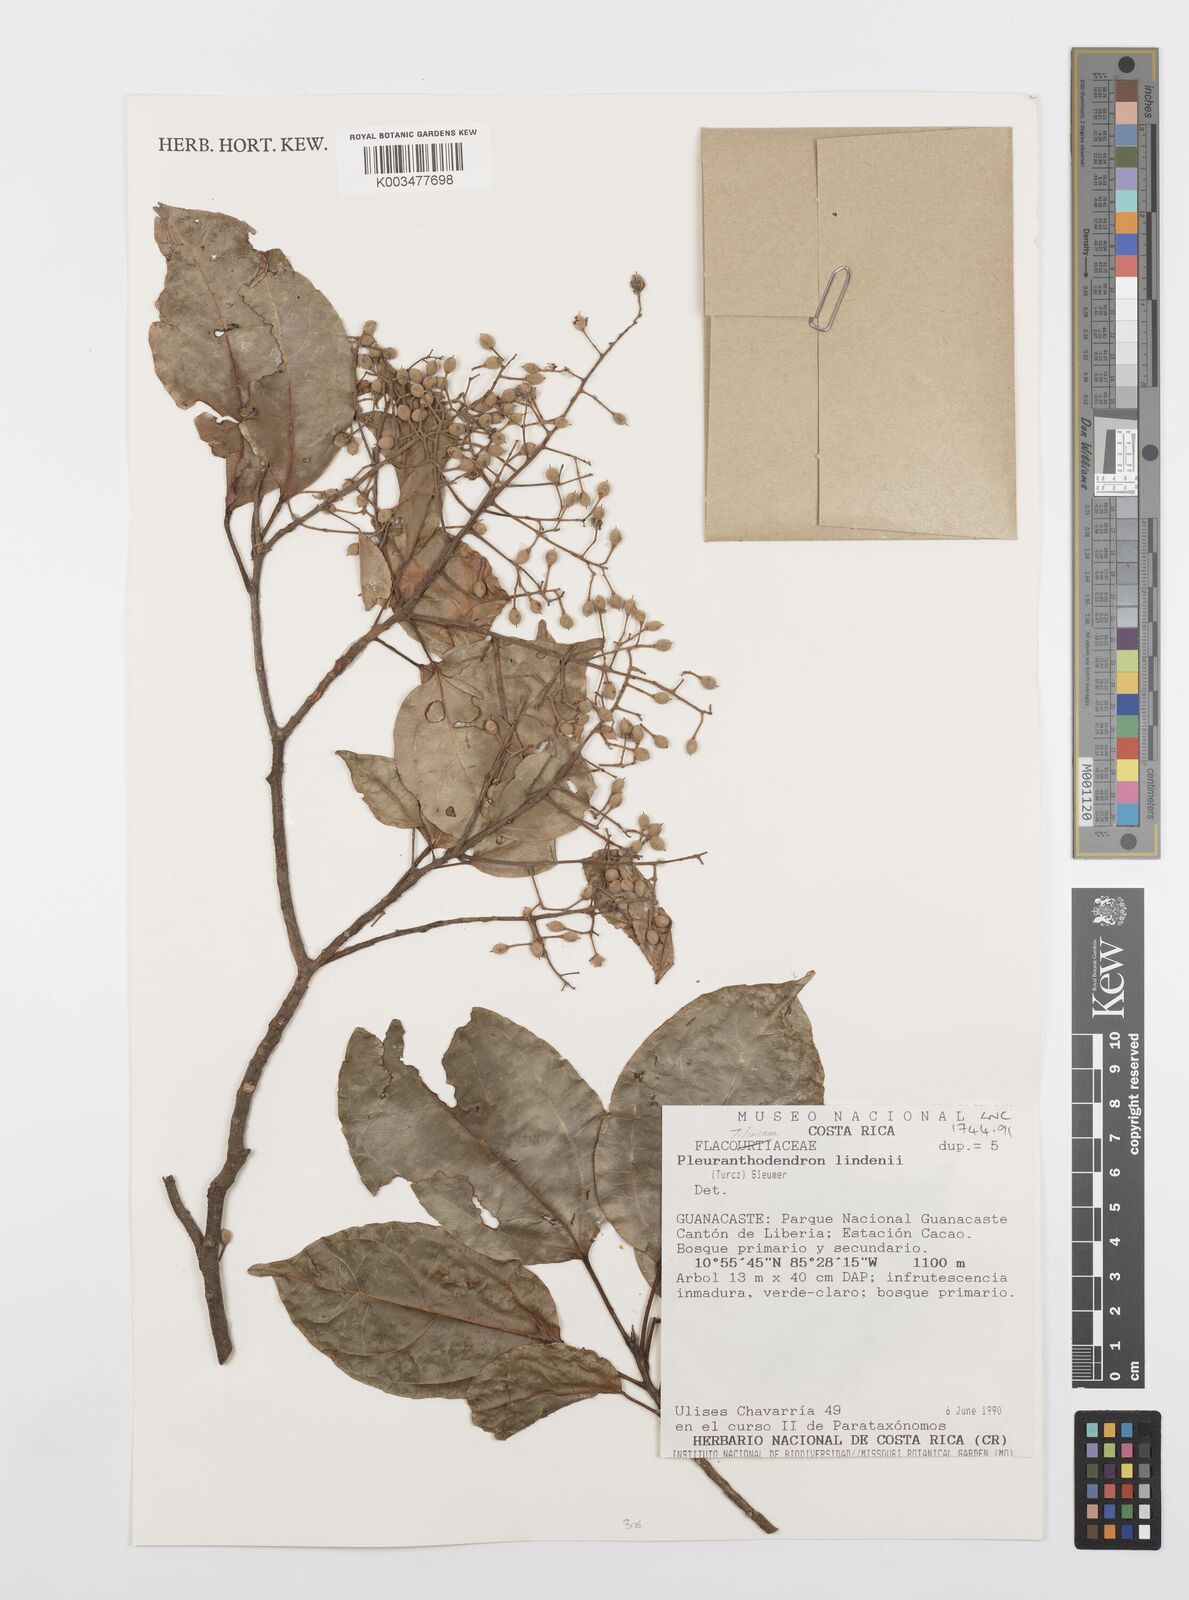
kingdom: Plantae
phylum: Tracheophyta
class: Magnoliopsida
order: Malpighiales
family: Salicaceae
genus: Pleuranthodendron
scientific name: Pleuranthodendron lindenii
